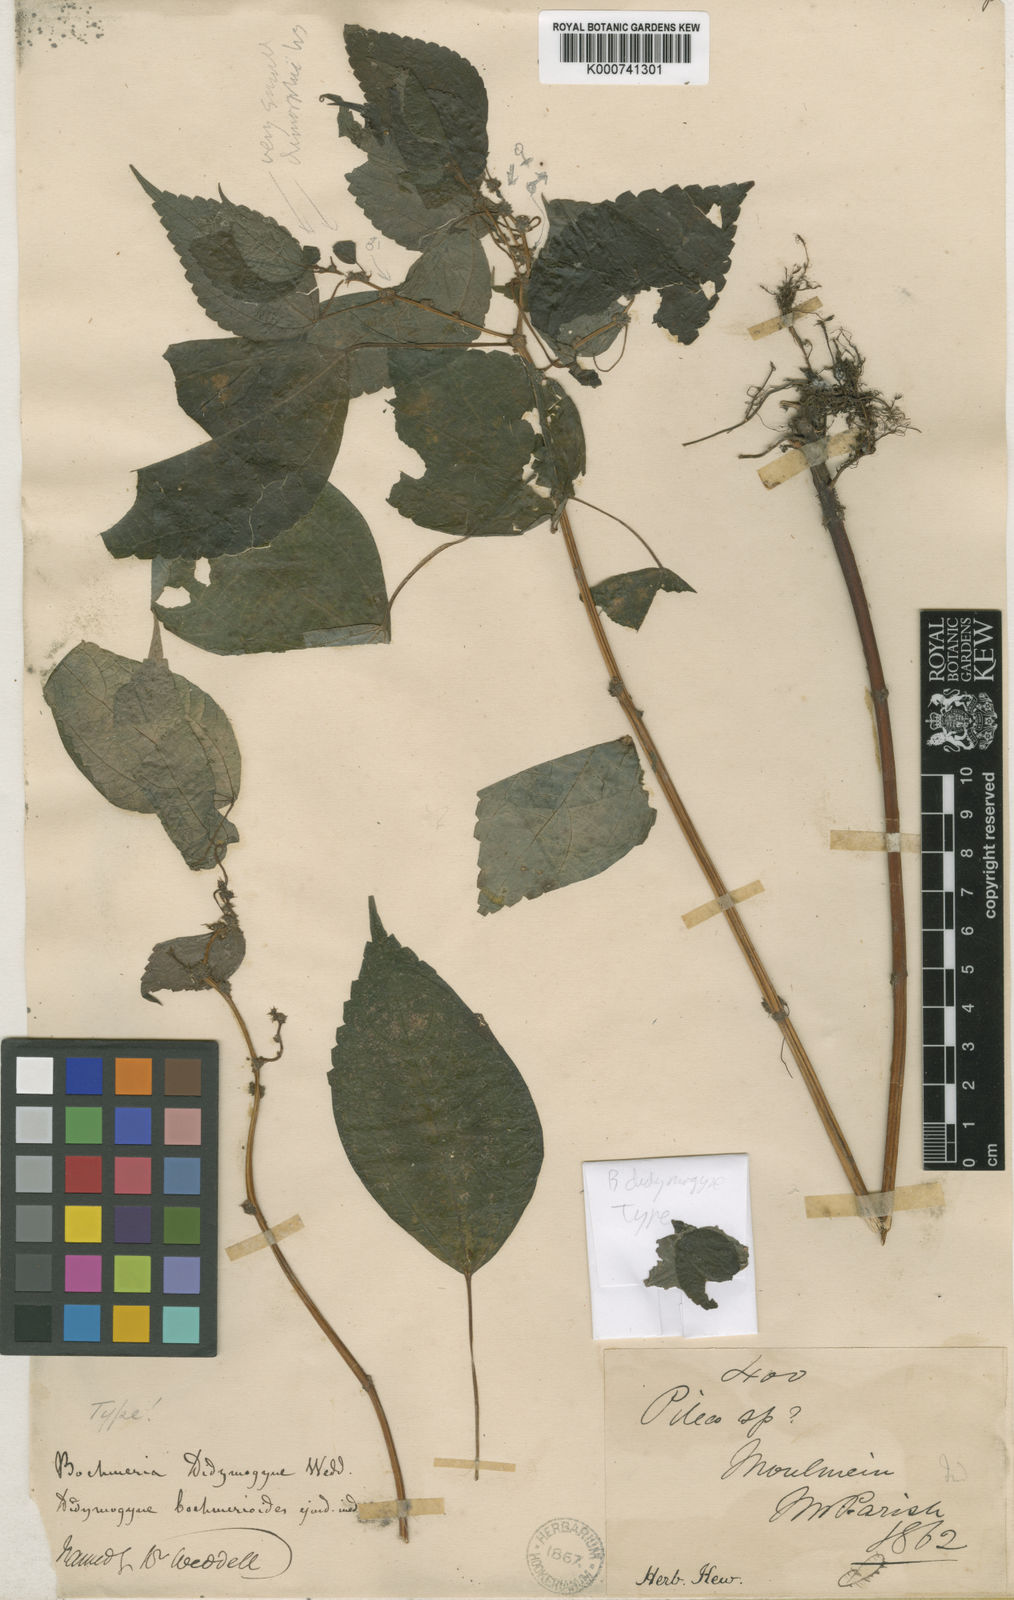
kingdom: Plantae
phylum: Tracheophyta
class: Magnoliopsida
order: Rosales
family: Urticaceae
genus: Boehmeria
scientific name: Boehmeria didymogyne
